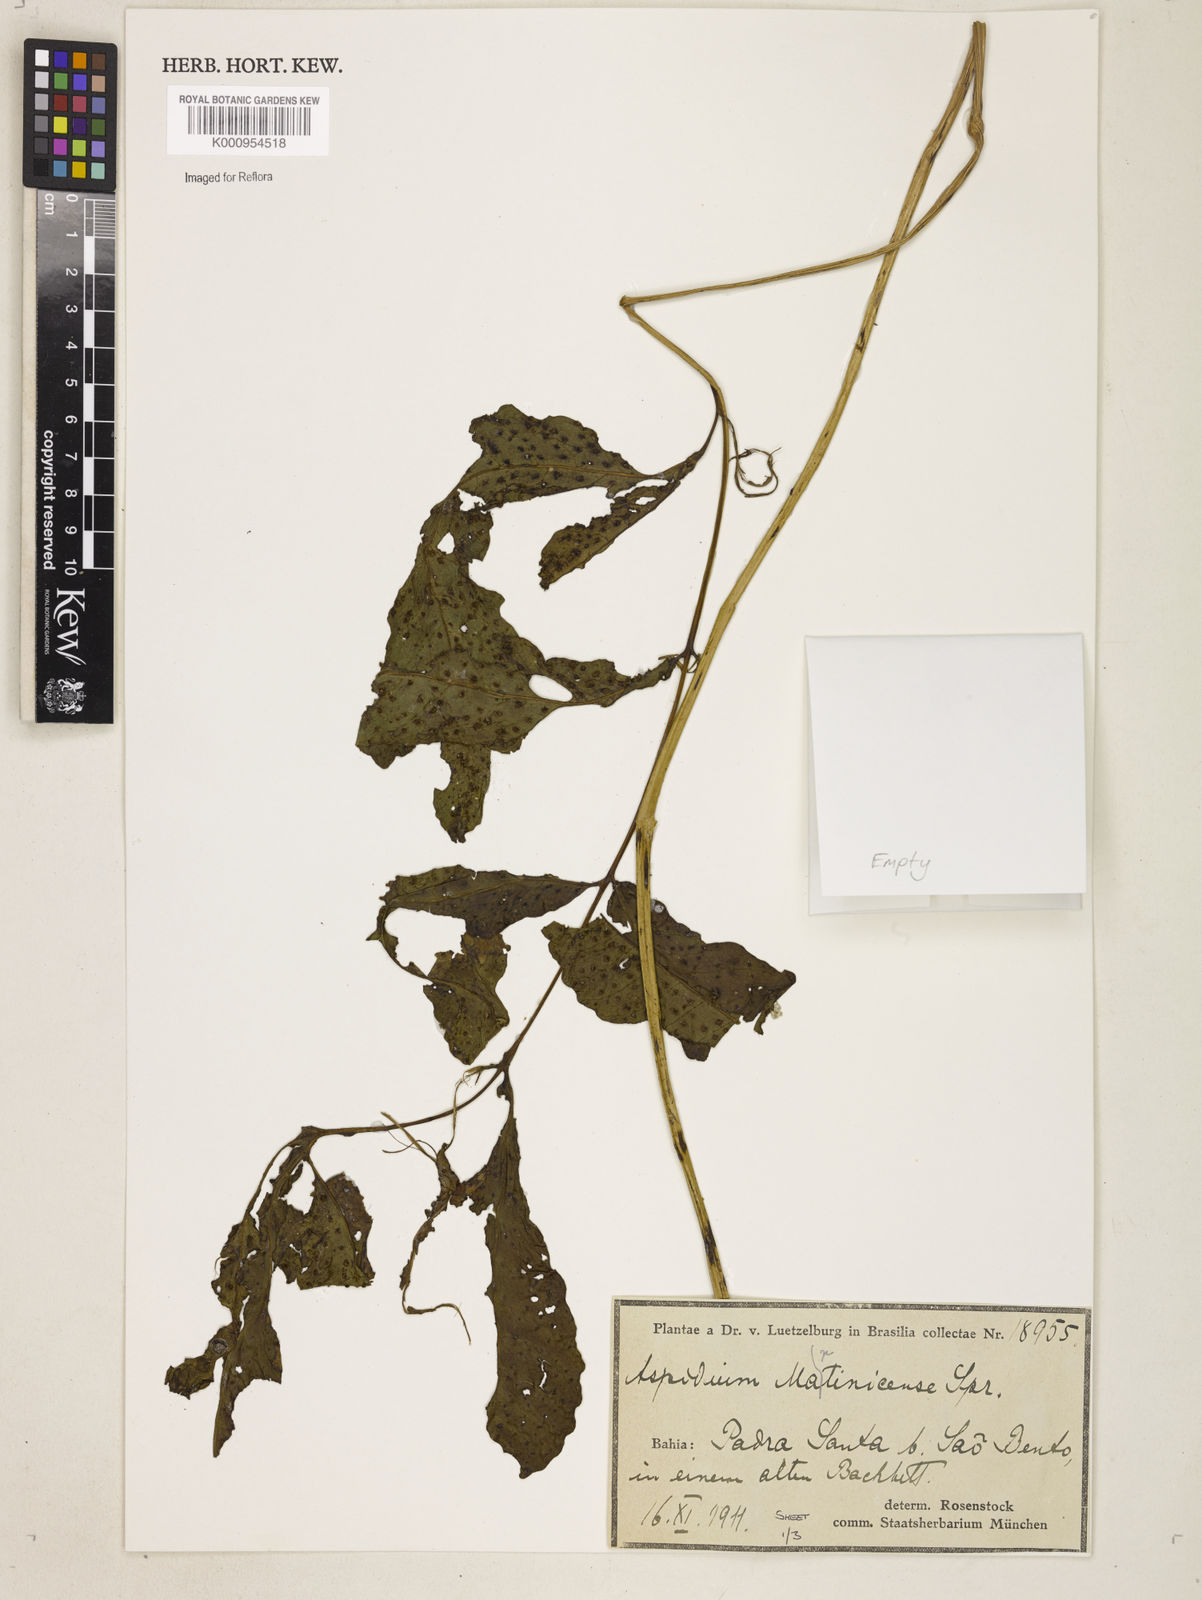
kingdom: Plantae
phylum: Tracheophyta
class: Polypodiopsida
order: Polypodiales
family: Tectariaceae
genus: Tectaria
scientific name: Tectaria incisa
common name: Incised halberd fern
